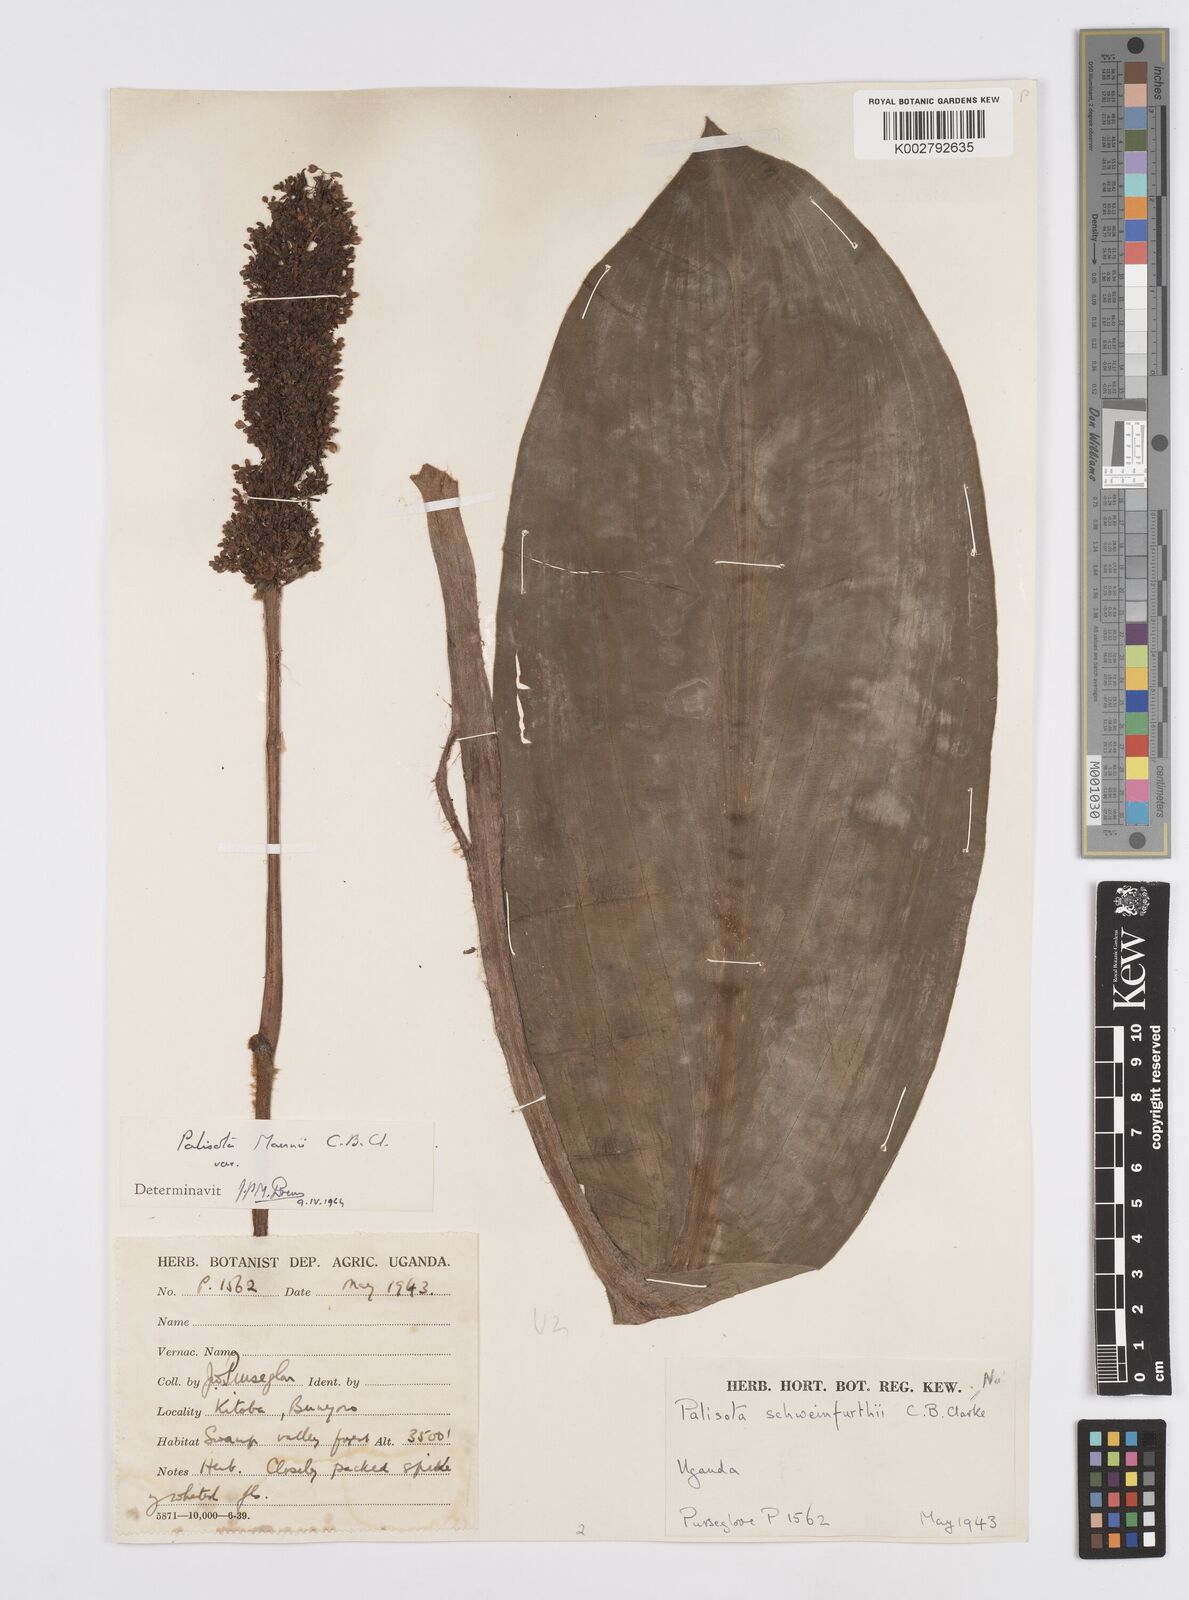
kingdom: Plantae
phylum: Tracheophyta
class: Liliopsida
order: Commelinales
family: Commelinaceae
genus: Palisota
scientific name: Palisota mannii
